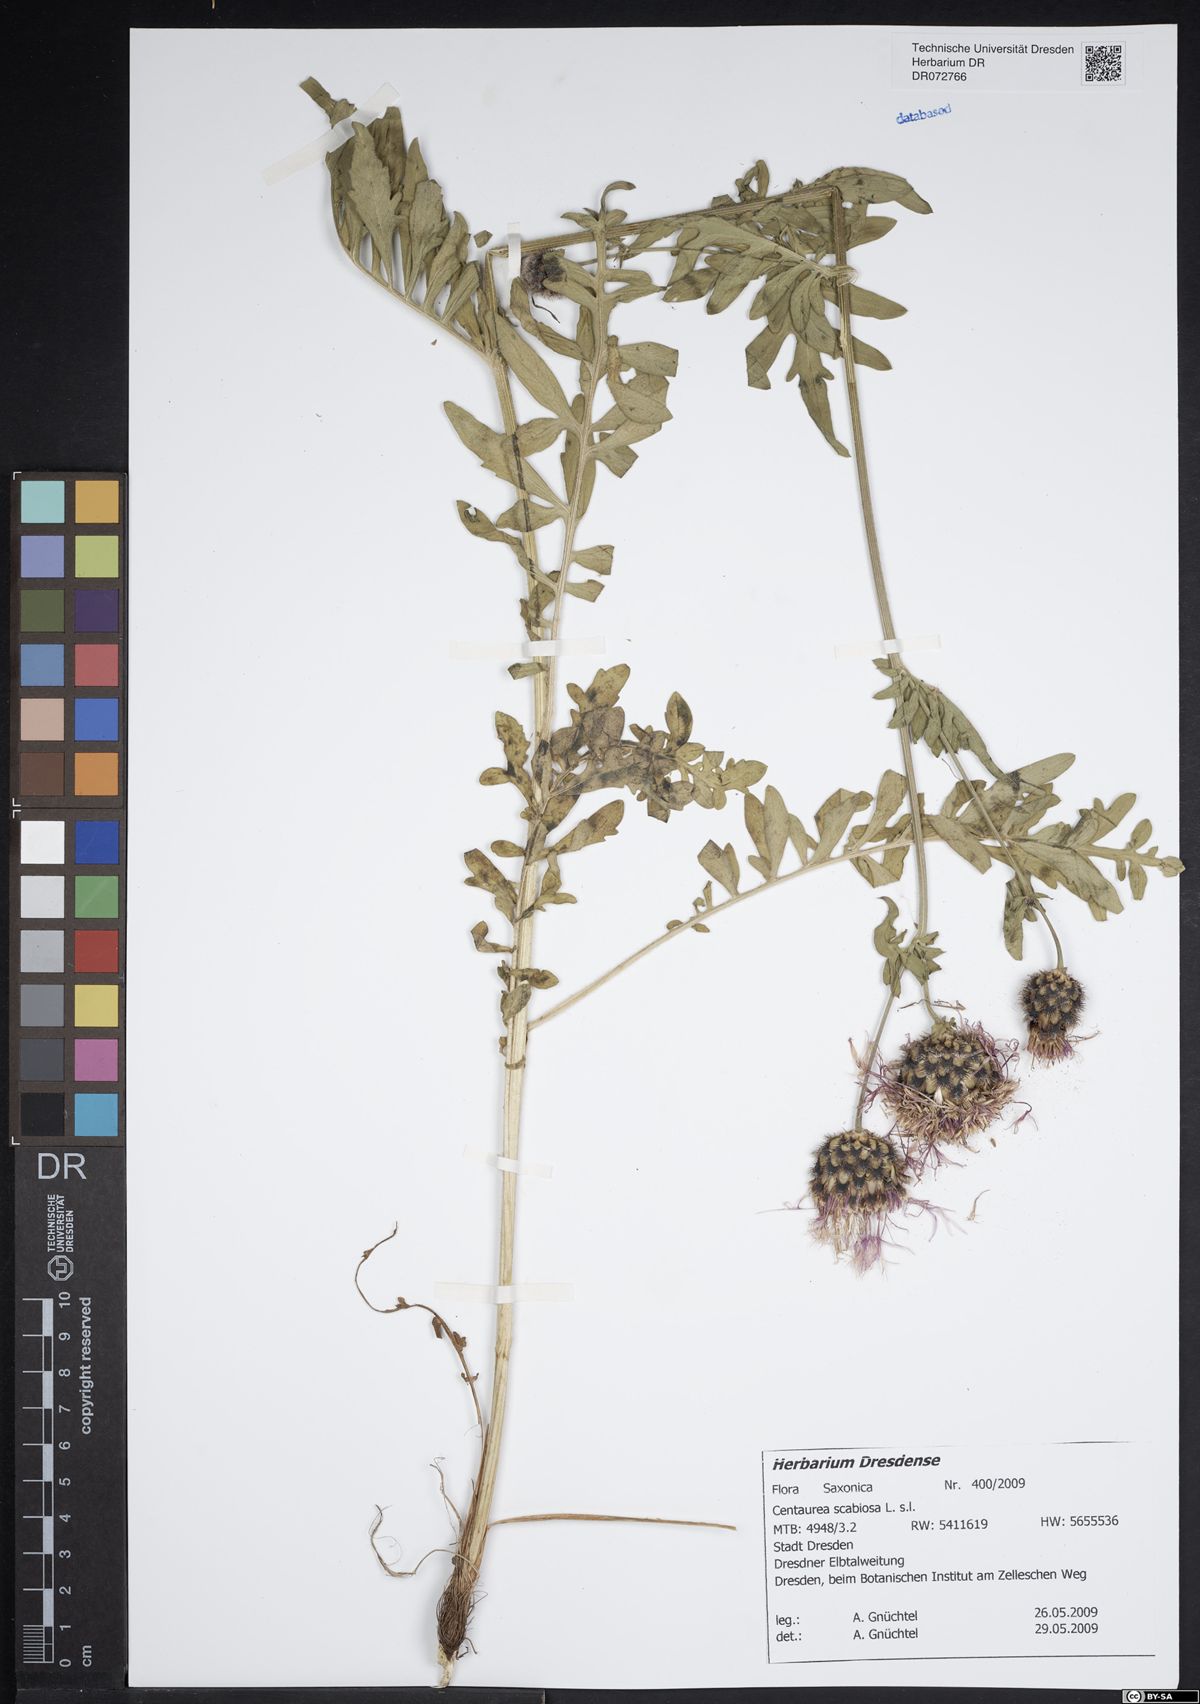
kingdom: Plantae
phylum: Tracheophyta
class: Magnoliopsida
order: Asterales
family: Asteraceae
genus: Centaurea
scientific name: Centaurea scabiosa
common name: Greater knapweed
